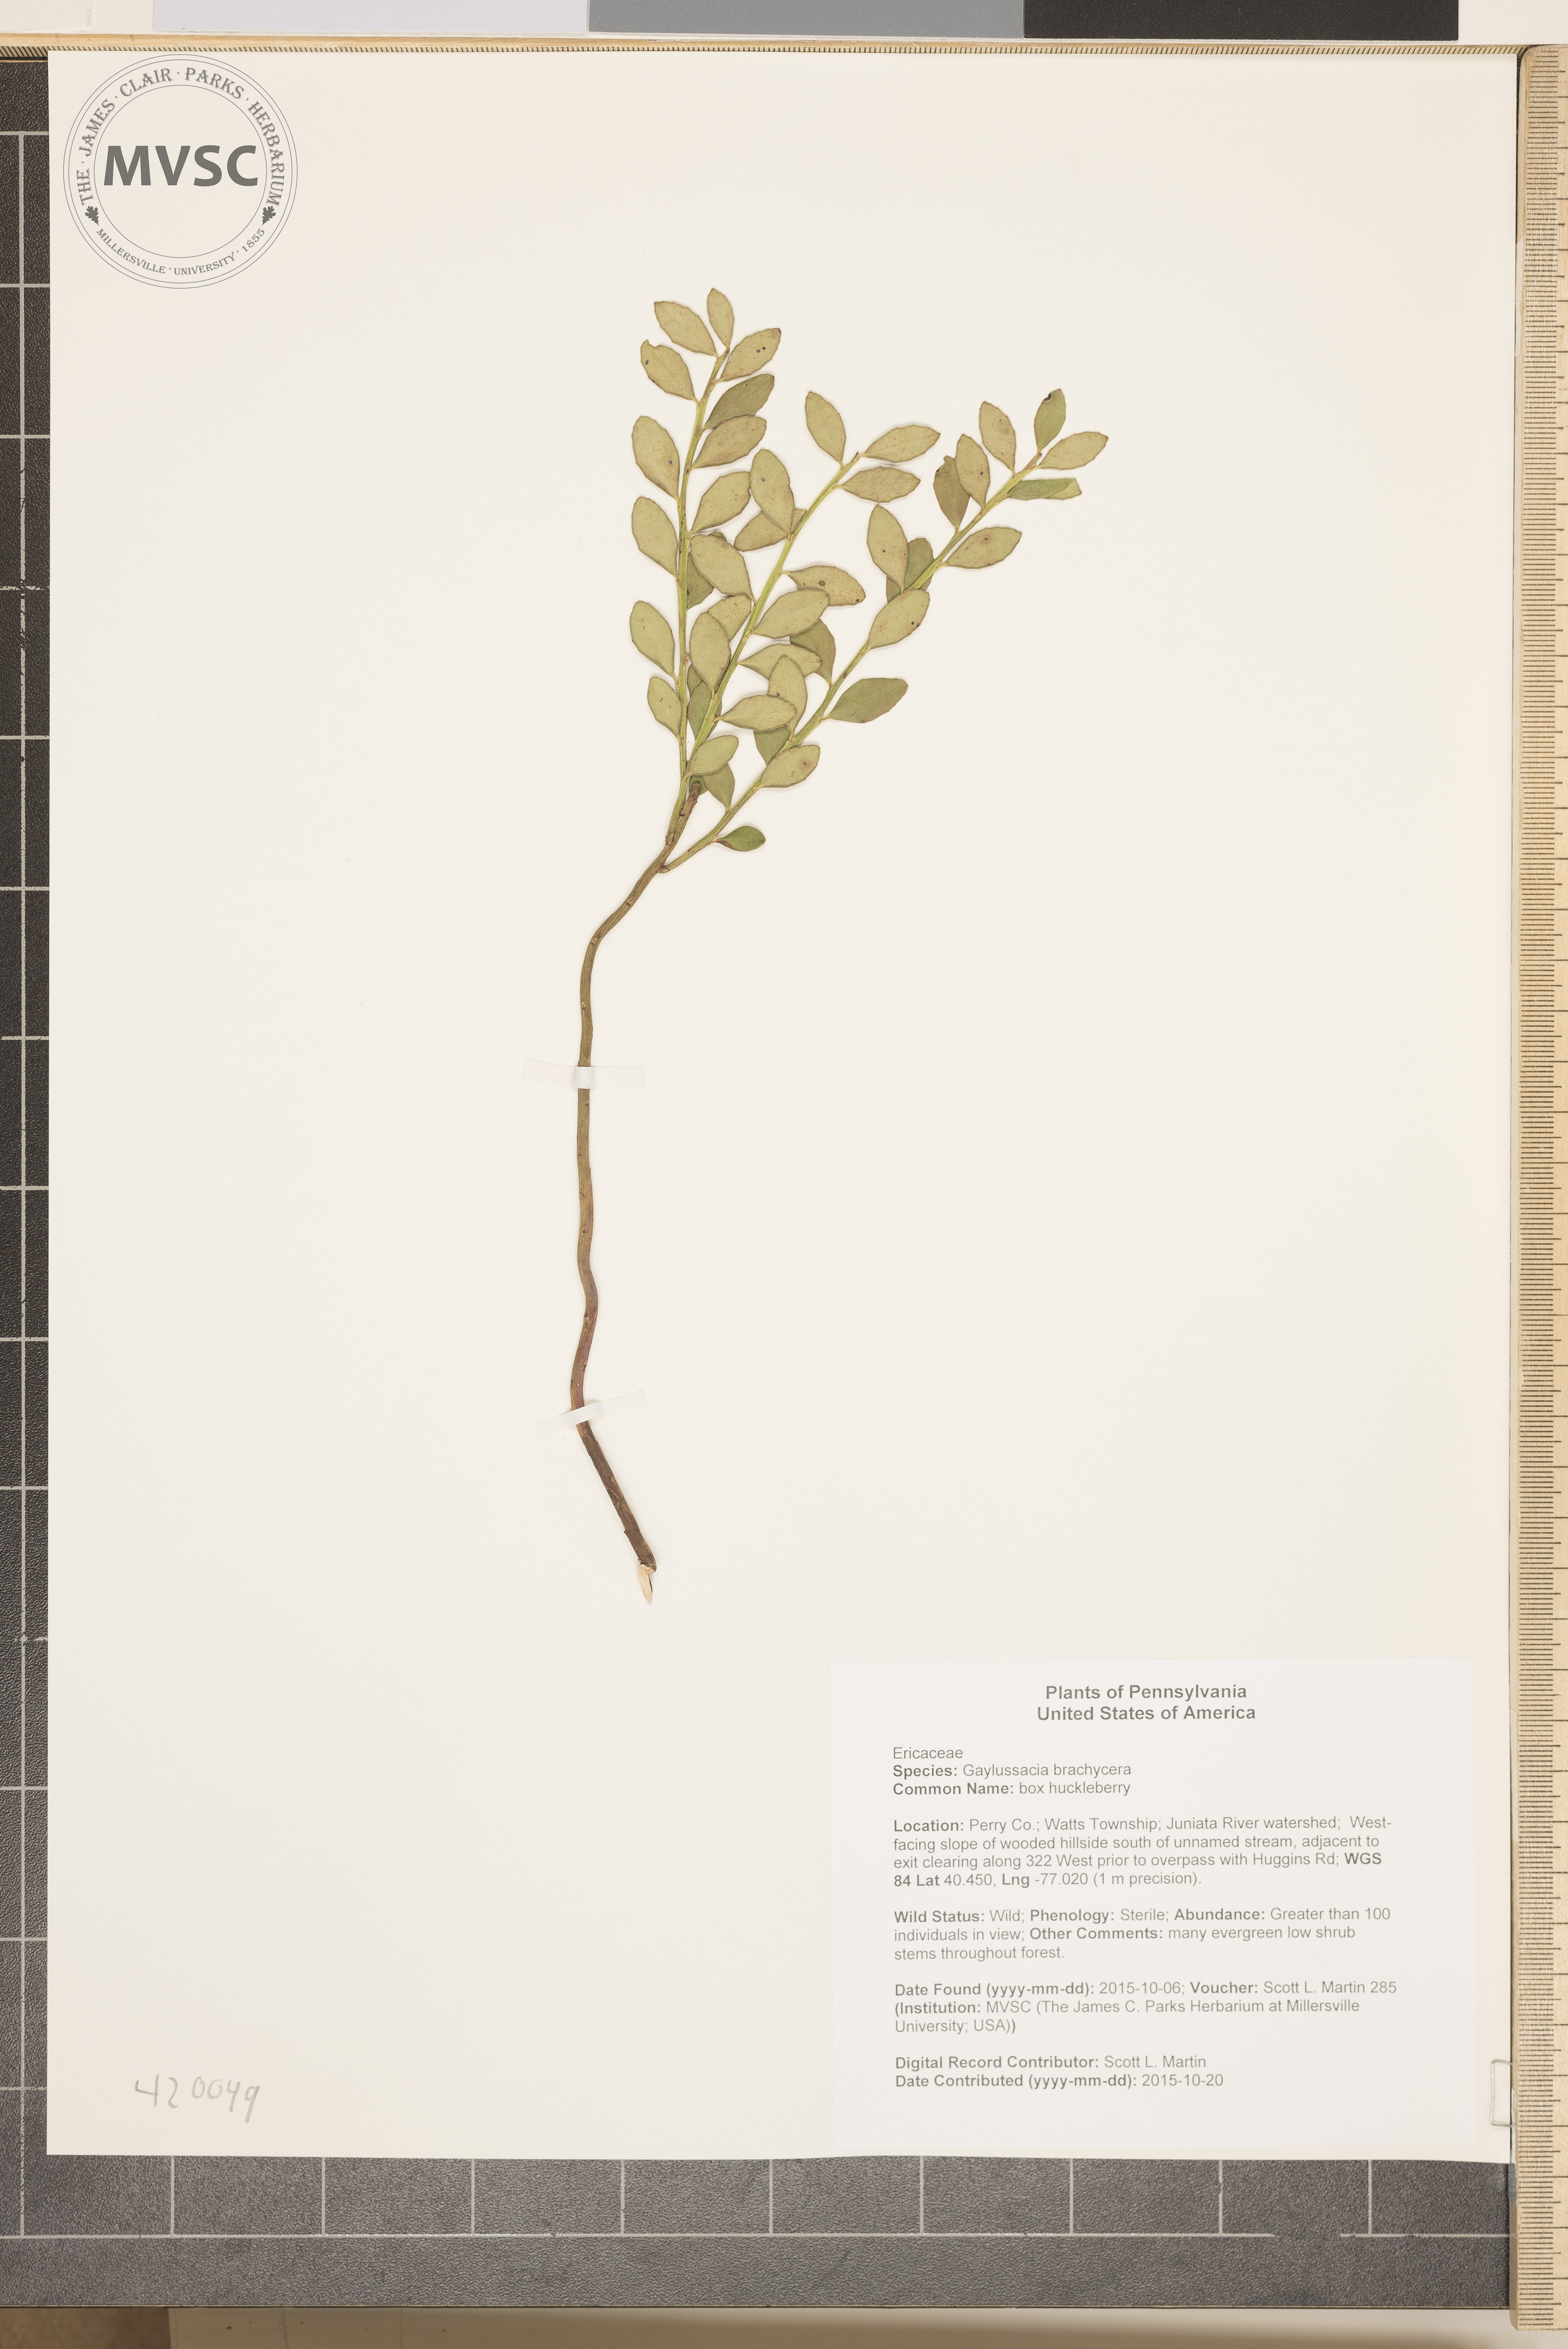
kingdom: Plantae
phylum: Tracheophyta
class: Magnoliopsida
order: Ericales
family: Ericaceae
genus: Gaylussacia
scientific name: Gaylussacia brachycera
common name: box huckleberry
